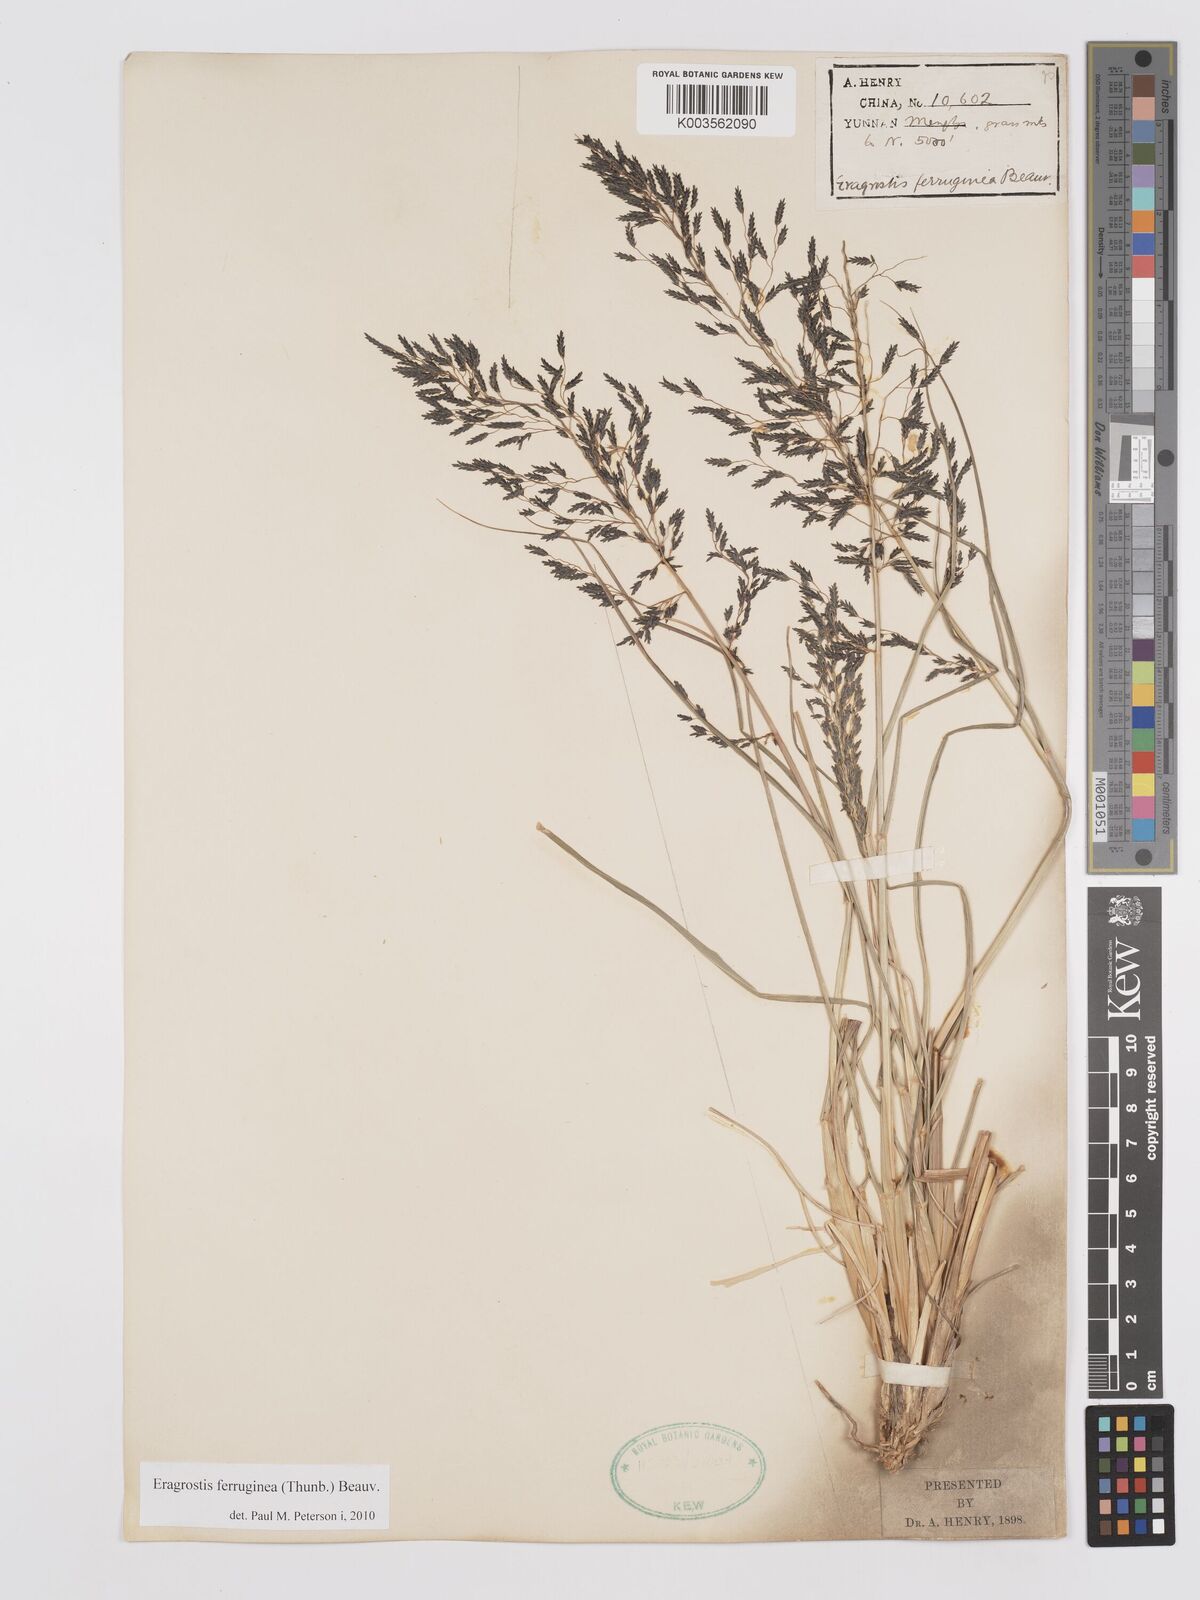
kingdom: Plantae
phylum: Tracheophyta
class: Liliopsida
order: Poales
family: Poaceae
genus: Eragrostis
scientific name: Eragrostis ferruginea
